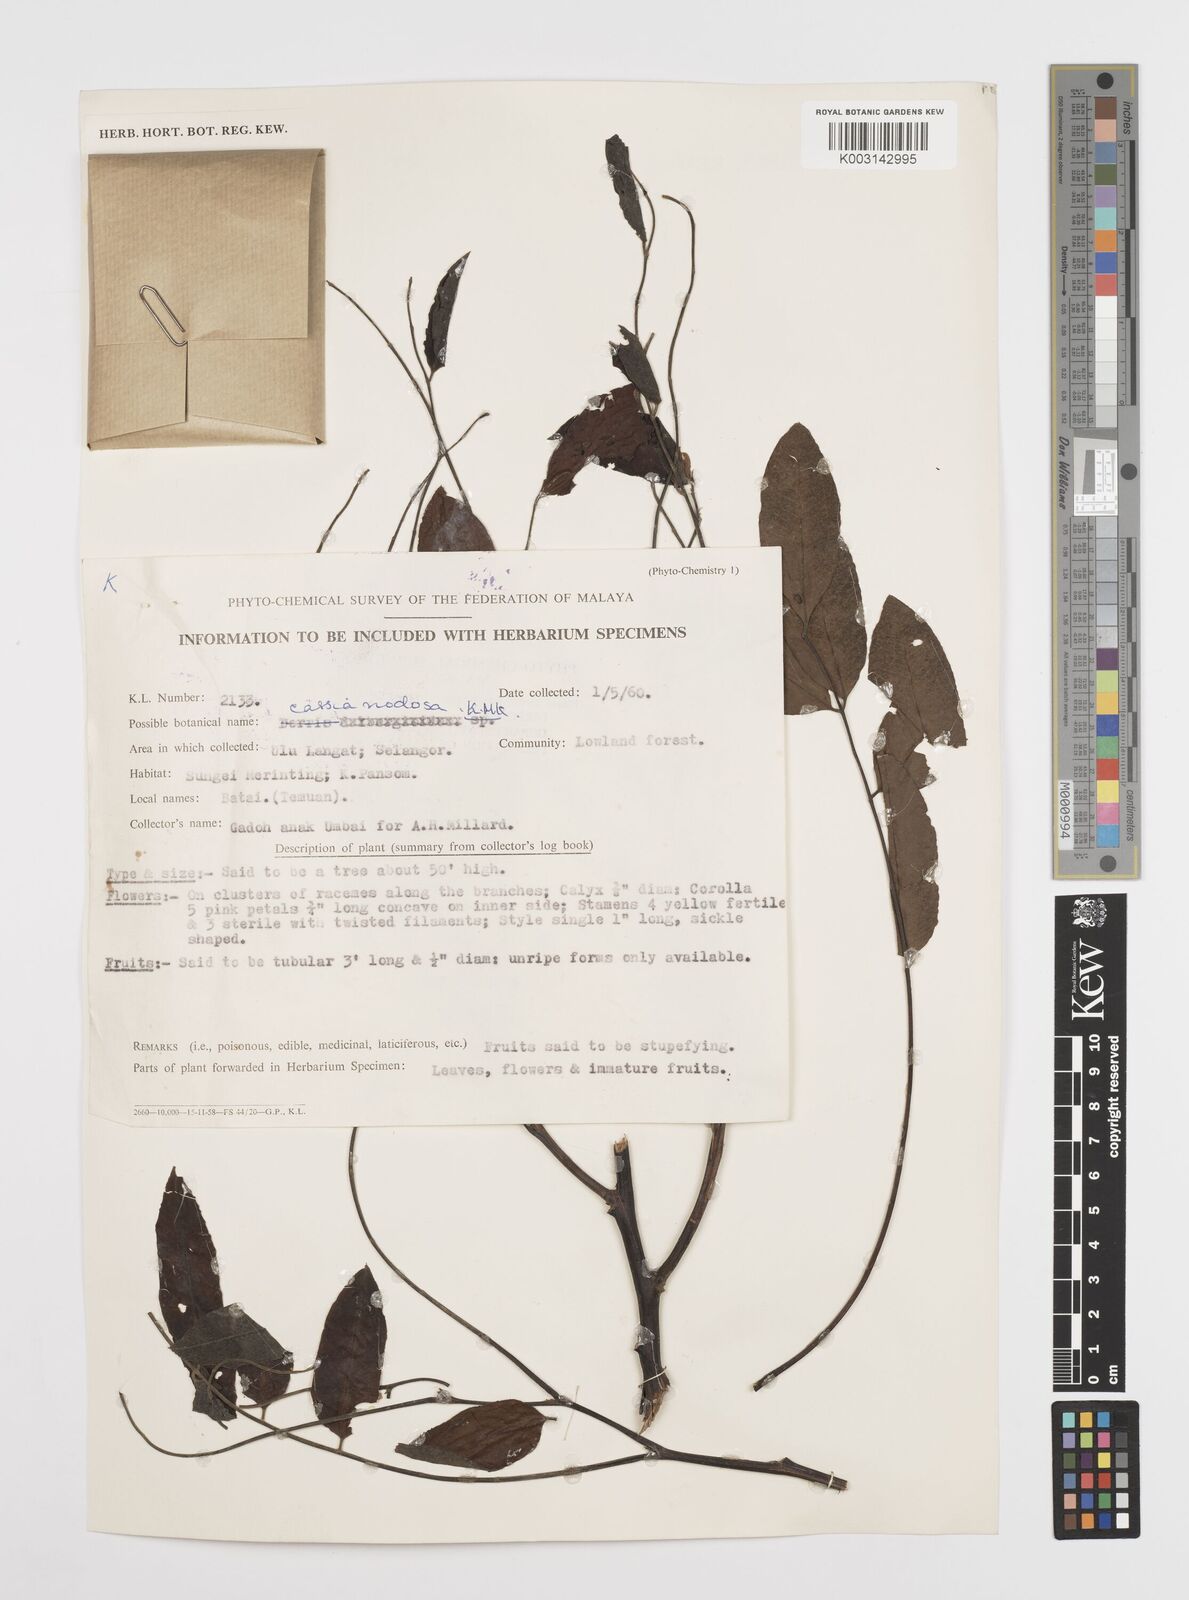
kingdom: Plantae
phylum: Tracheophyta
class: Magnoliopsida
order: Fabales
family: Fabaceae
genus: Cassia
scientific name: Cassia javanica
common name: Apple blossom
